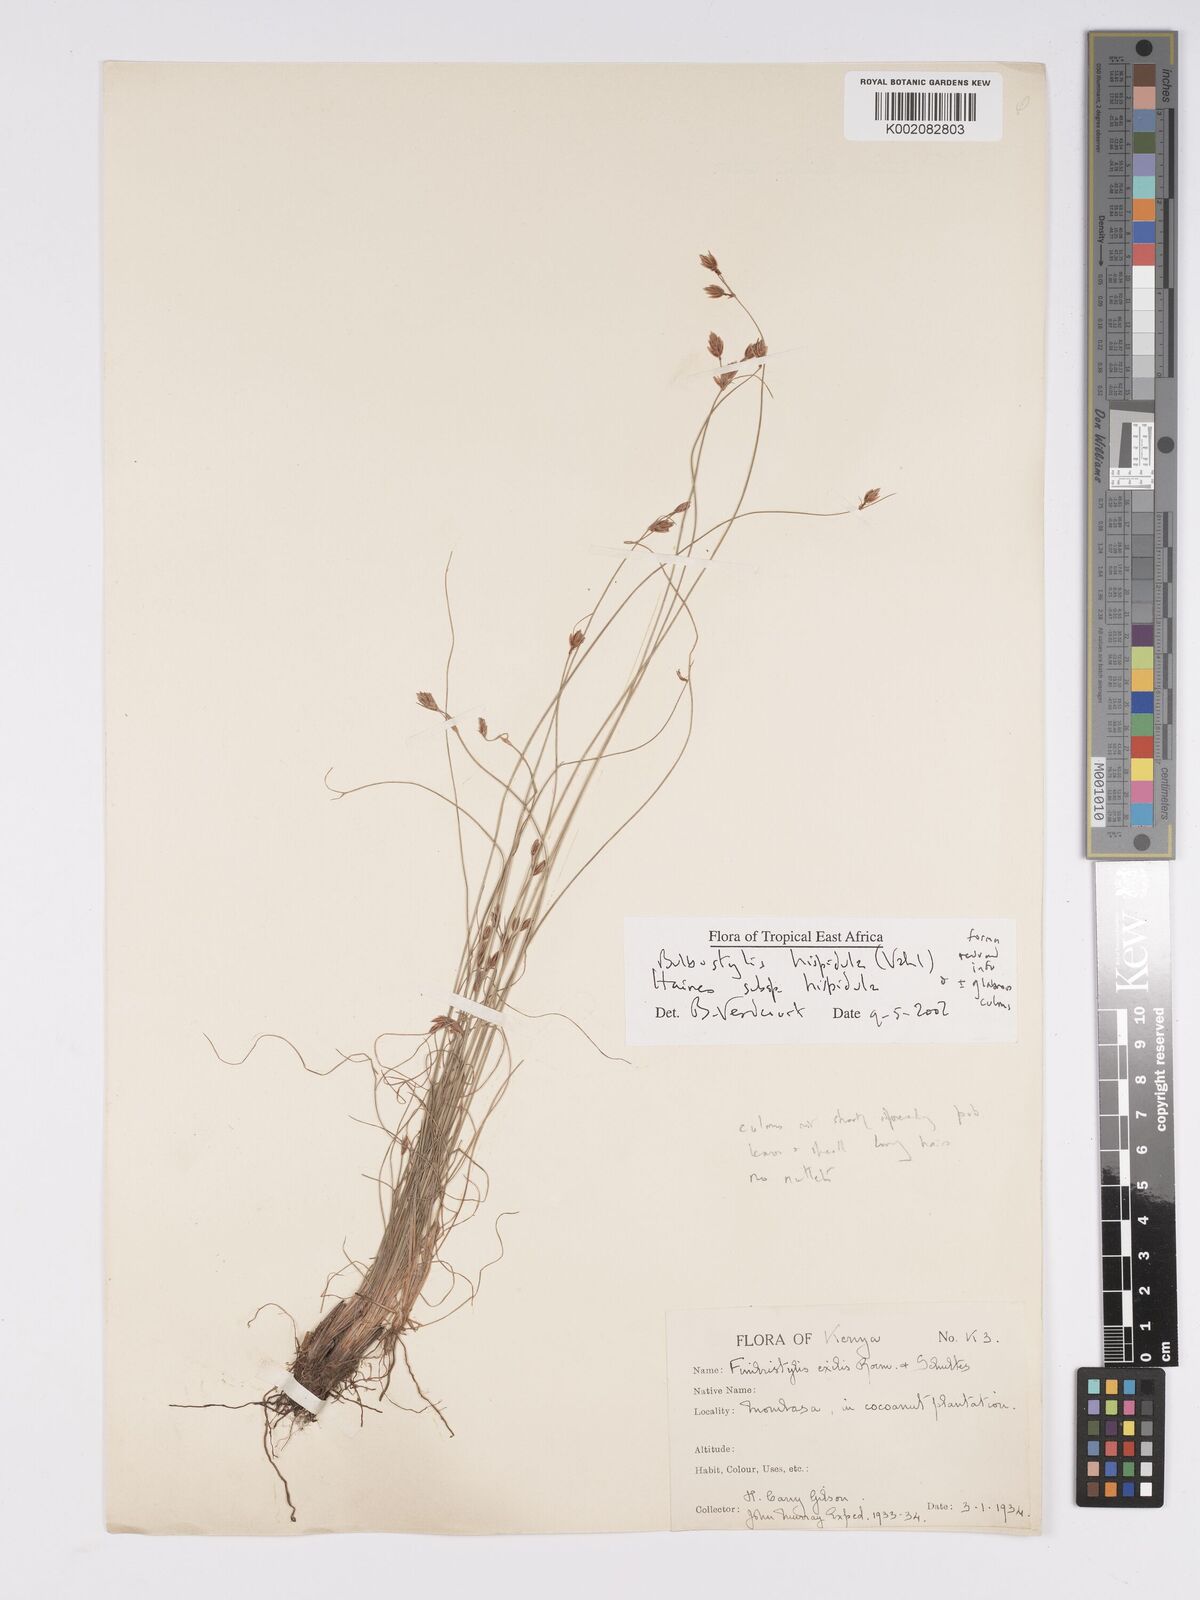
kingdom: Plantae
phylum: Tracheophyta
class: Liliopsida
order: Poales
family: Cyperaceae
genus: Bulbostylis
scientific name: Bulbostylis hispidula
